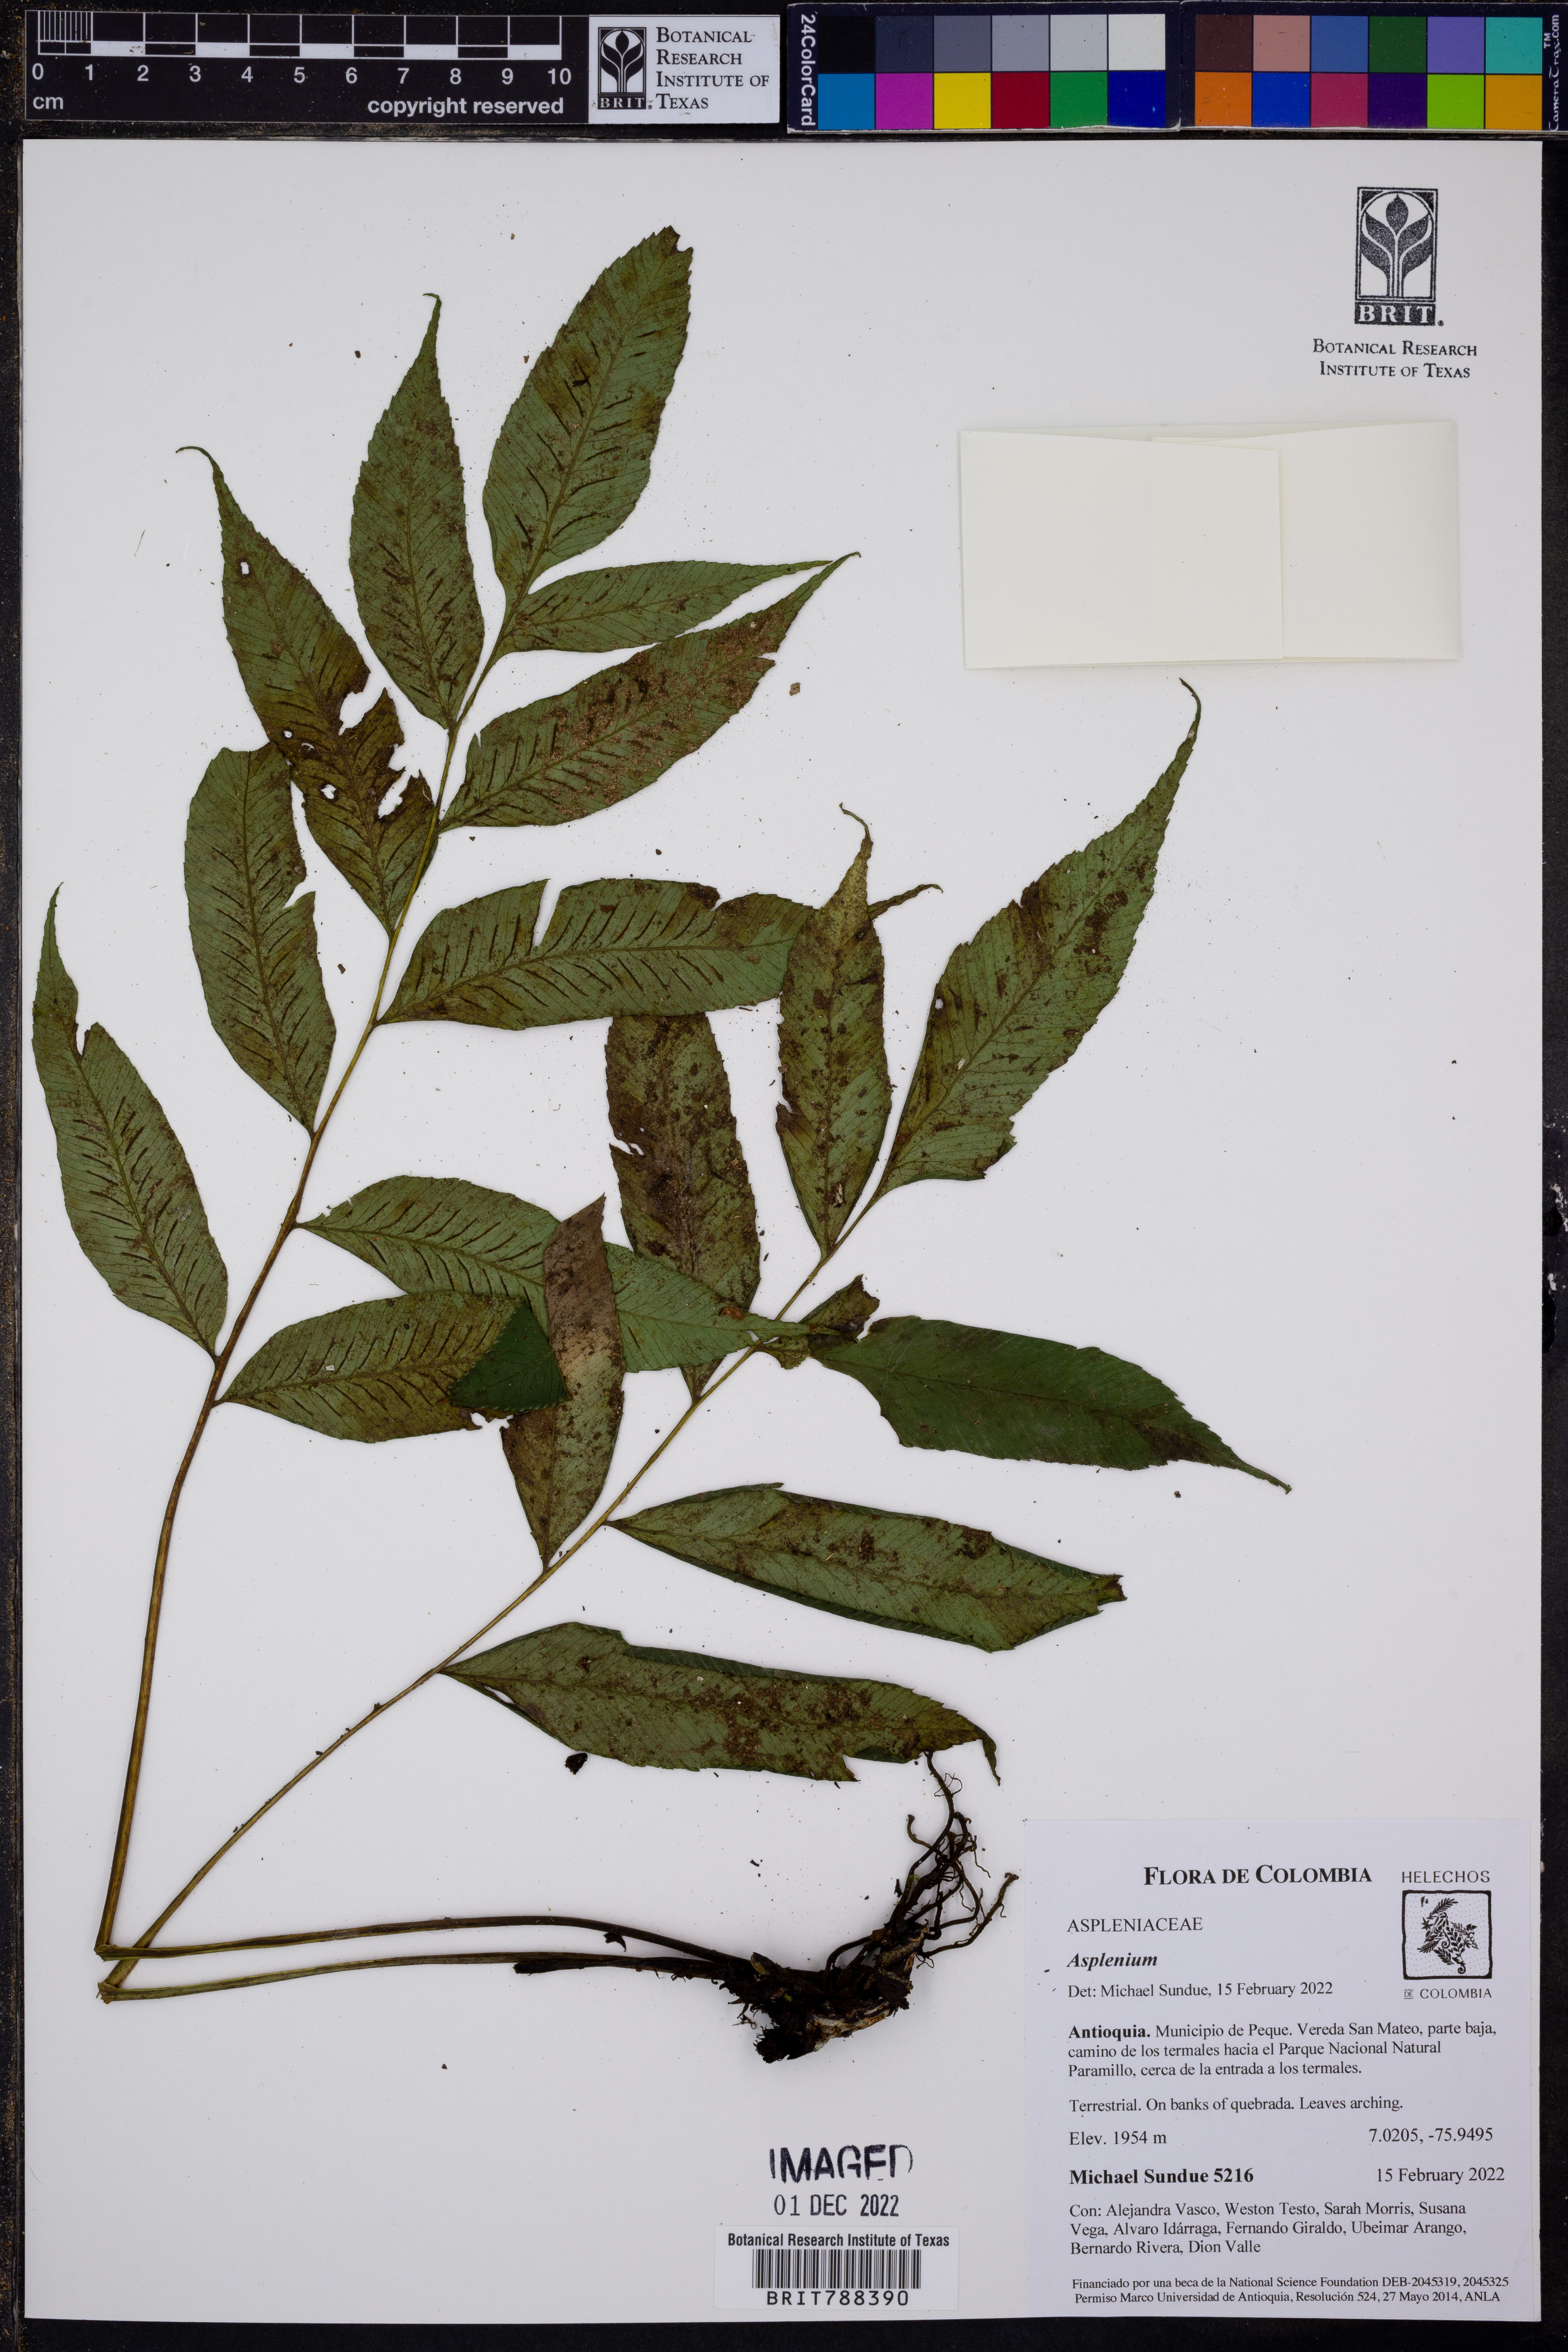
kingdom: Plantae
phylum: Tracheophyta
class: Polypodiopsida
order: Polypodiales
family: Athyriaceae
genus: Diplazium
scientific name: Diplazium roemerianum
